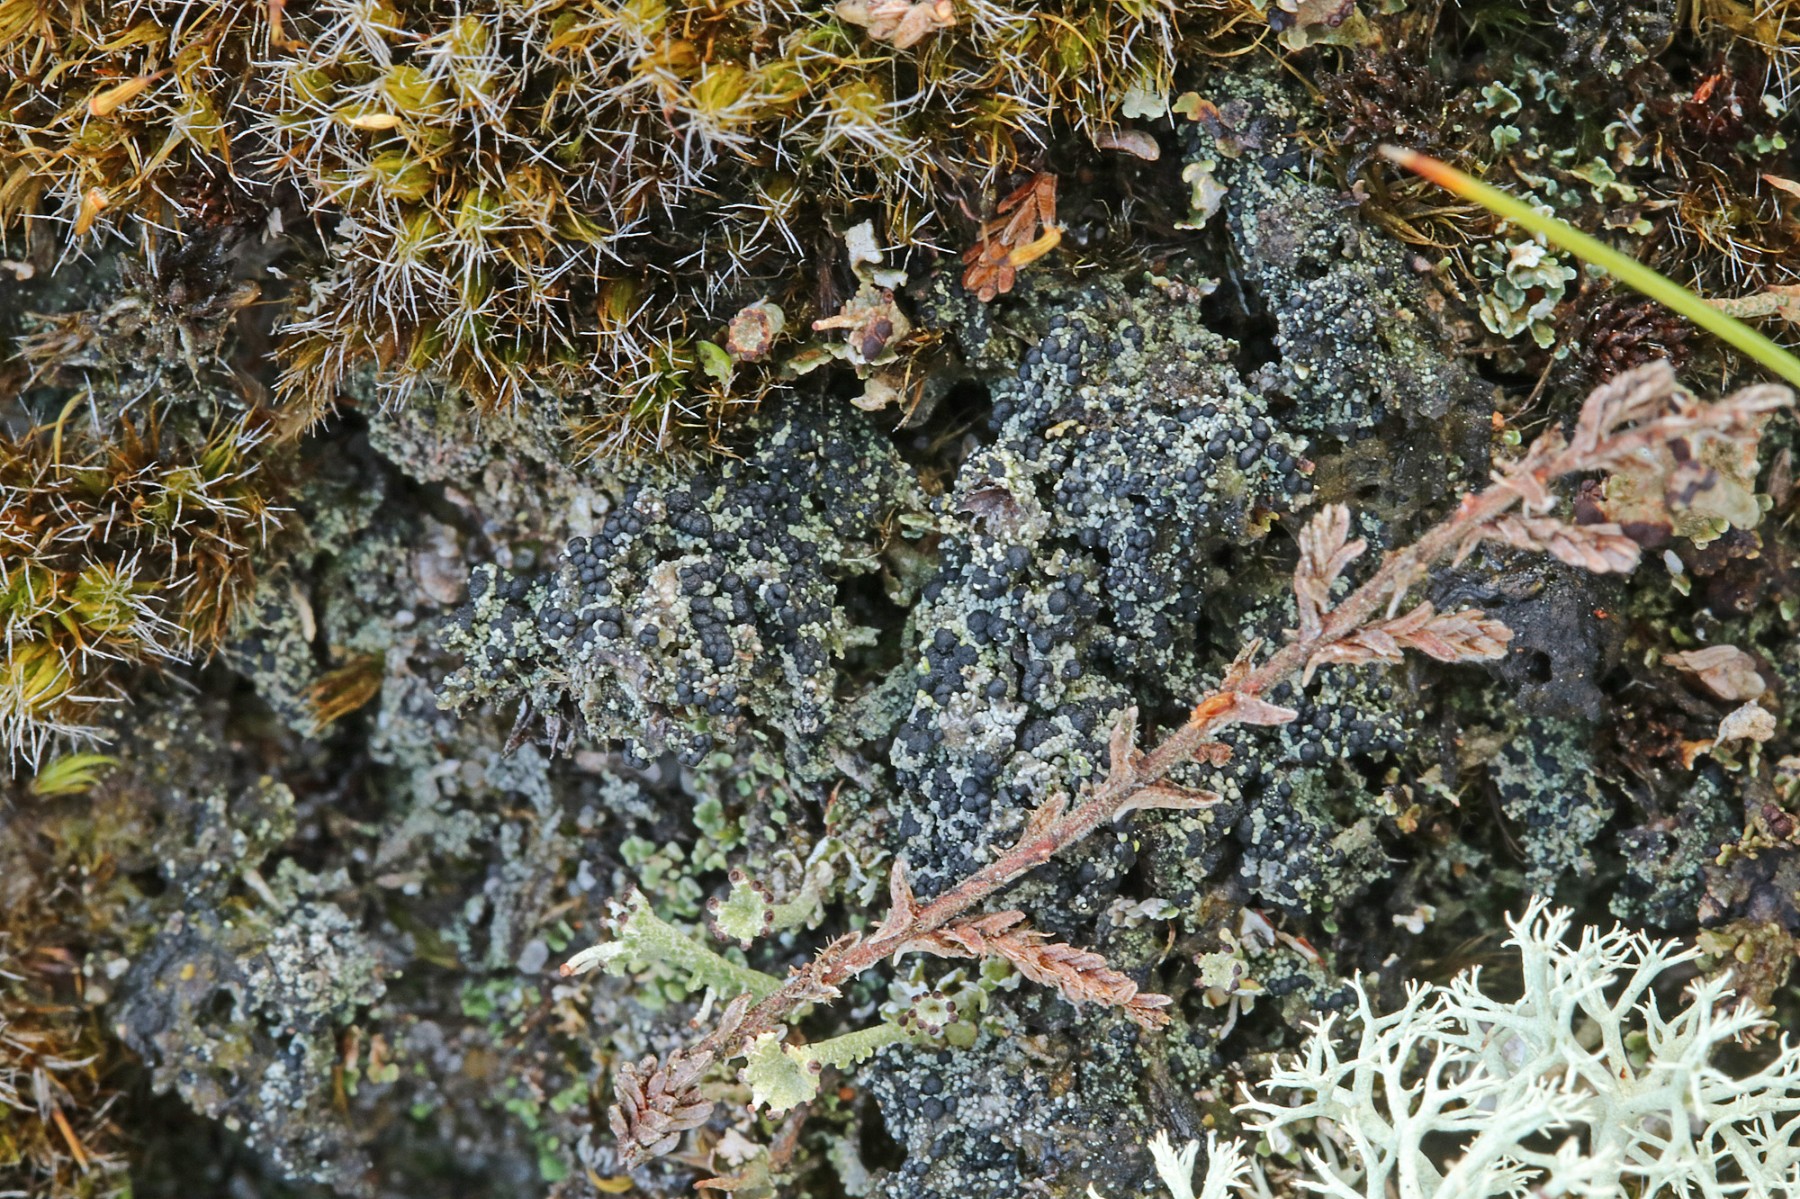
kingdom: Fungi
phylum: Ascomycota
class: Lecanoromycetes
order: Lecanorales
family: Byssolomataceae
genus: Micarea
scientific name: Micarea lignaria
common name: tørve-knaplav
